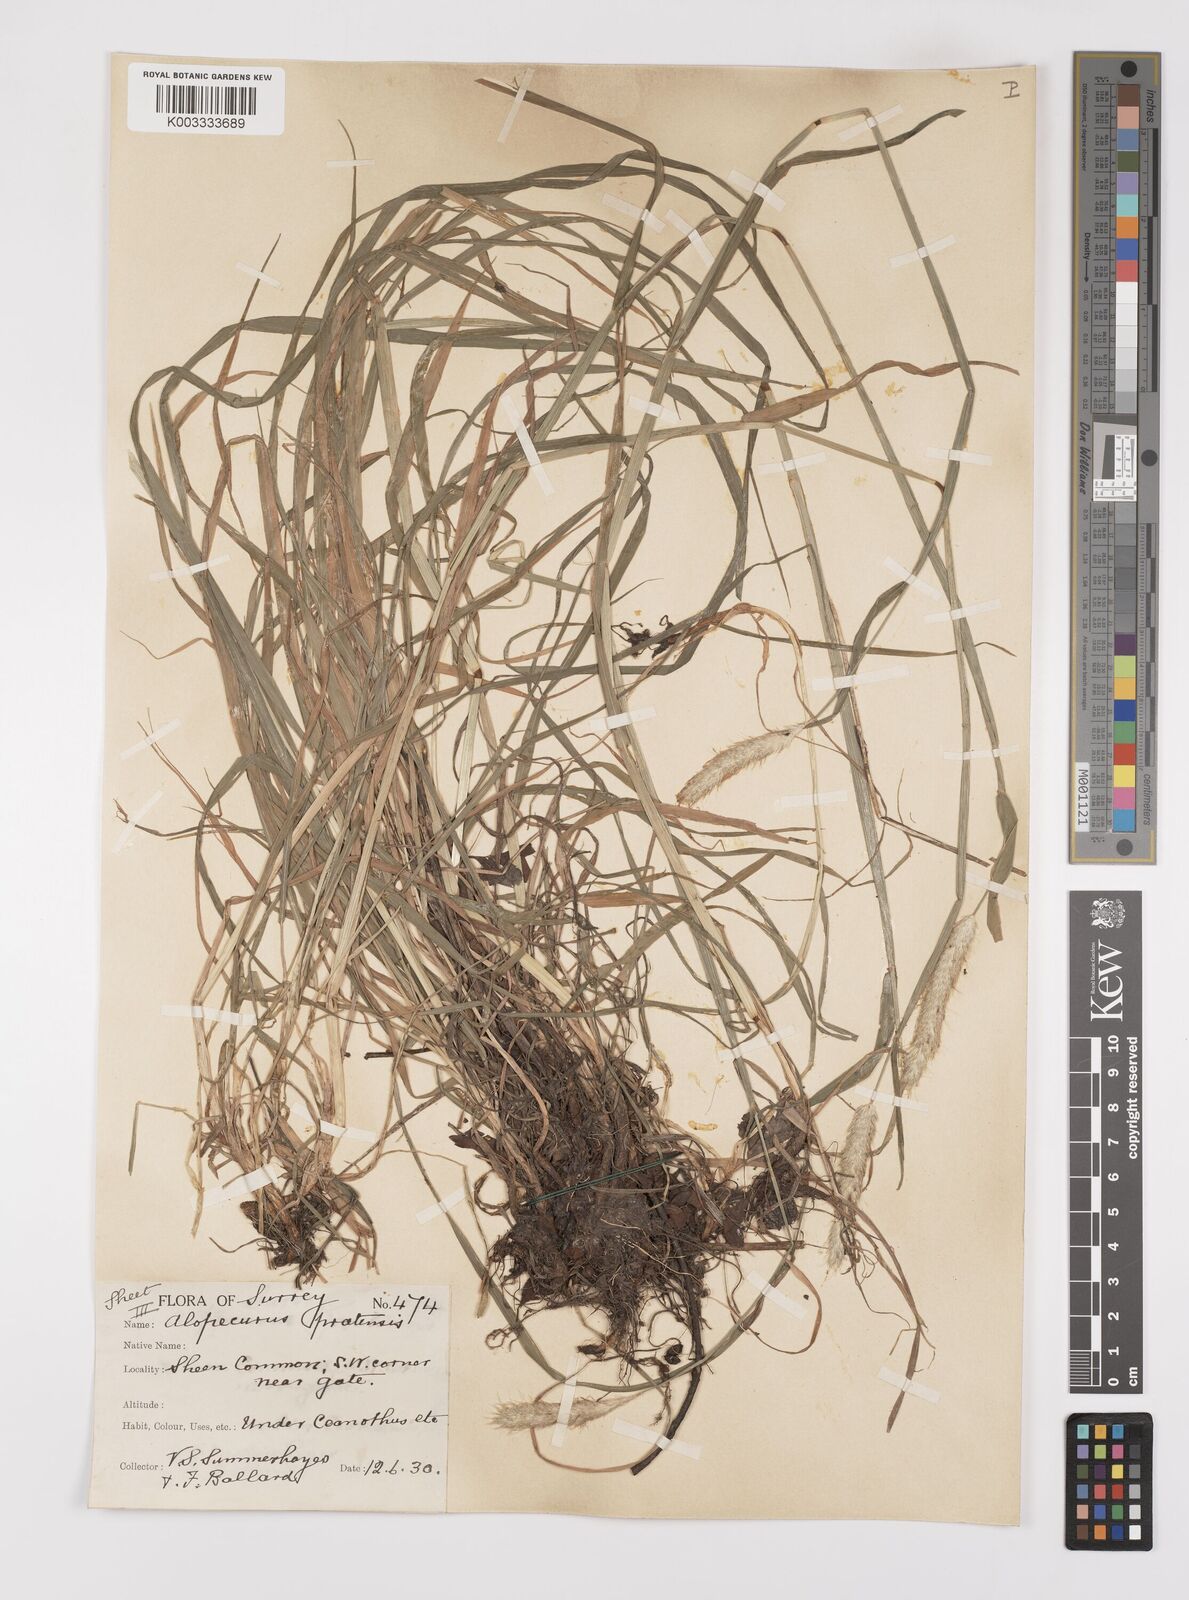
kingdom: Plantae
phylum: Tracheophyta
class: Liliopsida
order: Poales
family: Poaceae
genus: Alopecurus
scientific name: Alopecurus pratensis
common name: Meadow foxtail
